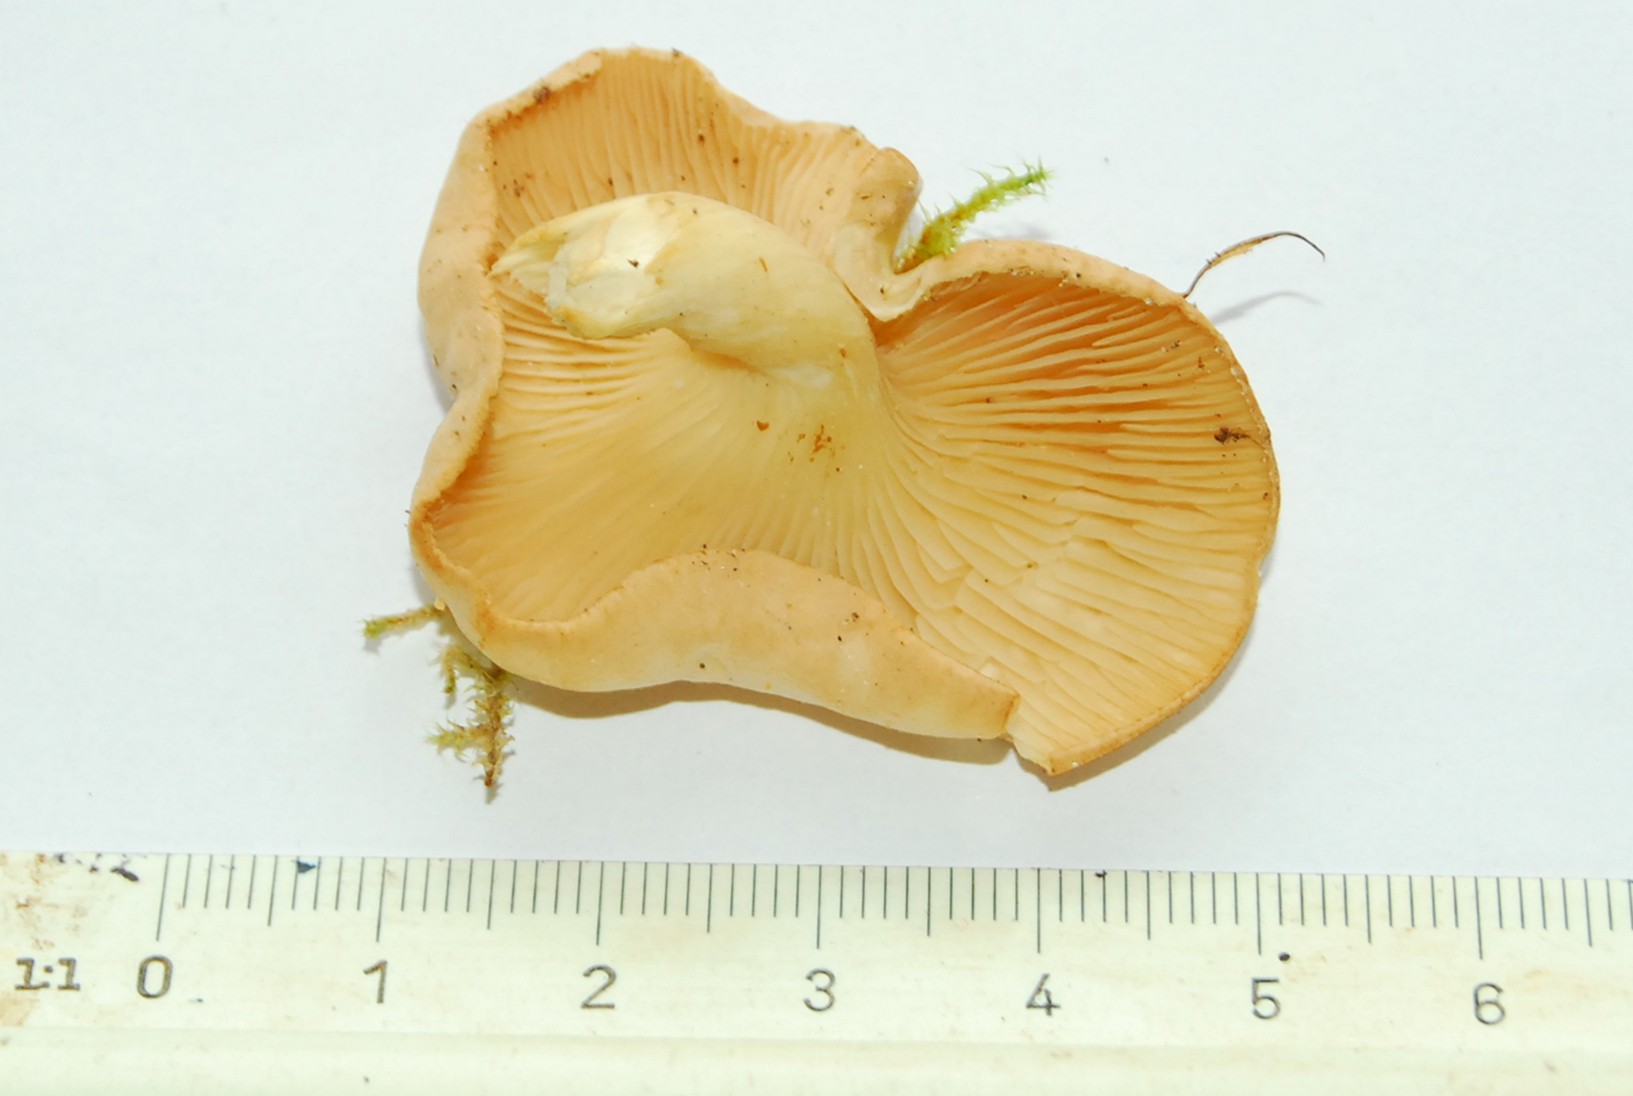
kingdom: Fungi
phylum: Basidiomycota
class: Agaricomycetes
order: Agaricales
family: Tricholomataceae
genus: Infundibulicybe
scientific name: Infundibulicybe gibba
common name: almindelig tragthat
